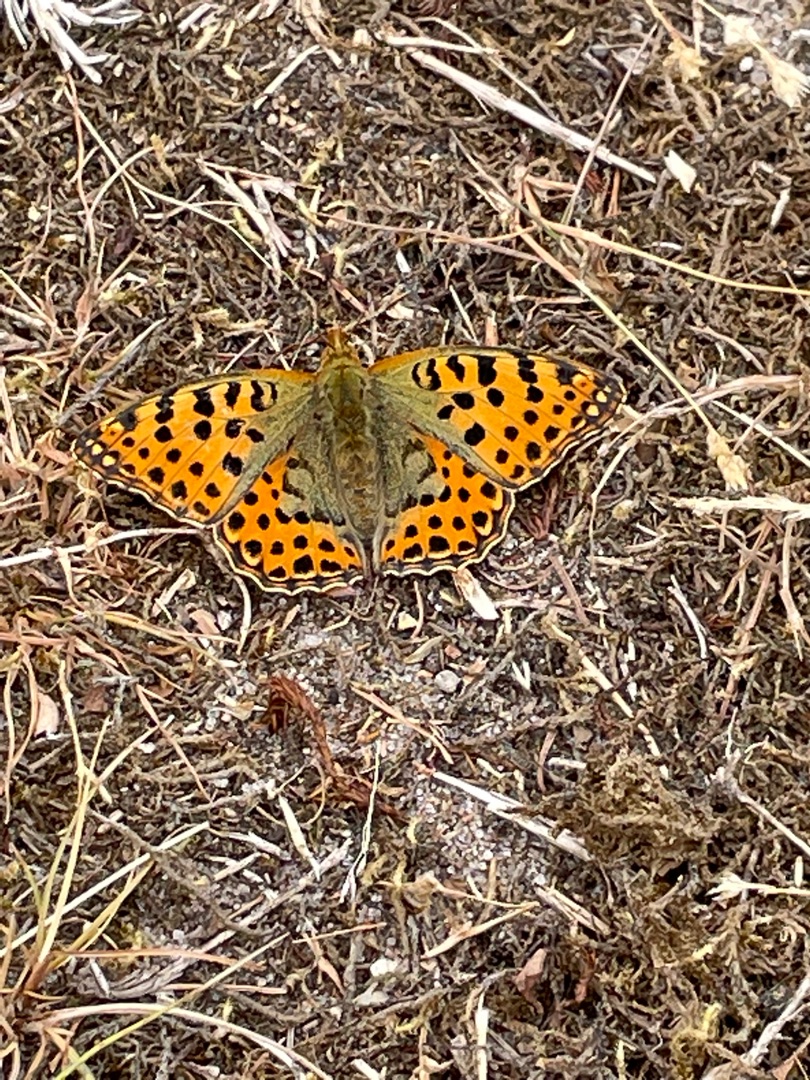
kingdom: Animalia
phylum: Arthropoda
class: Insecta
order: Lepidoptera
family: Nymphalidae
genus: Issoria
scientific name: Issoria lathonia
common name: Storplettet perlemorsommerfugl
